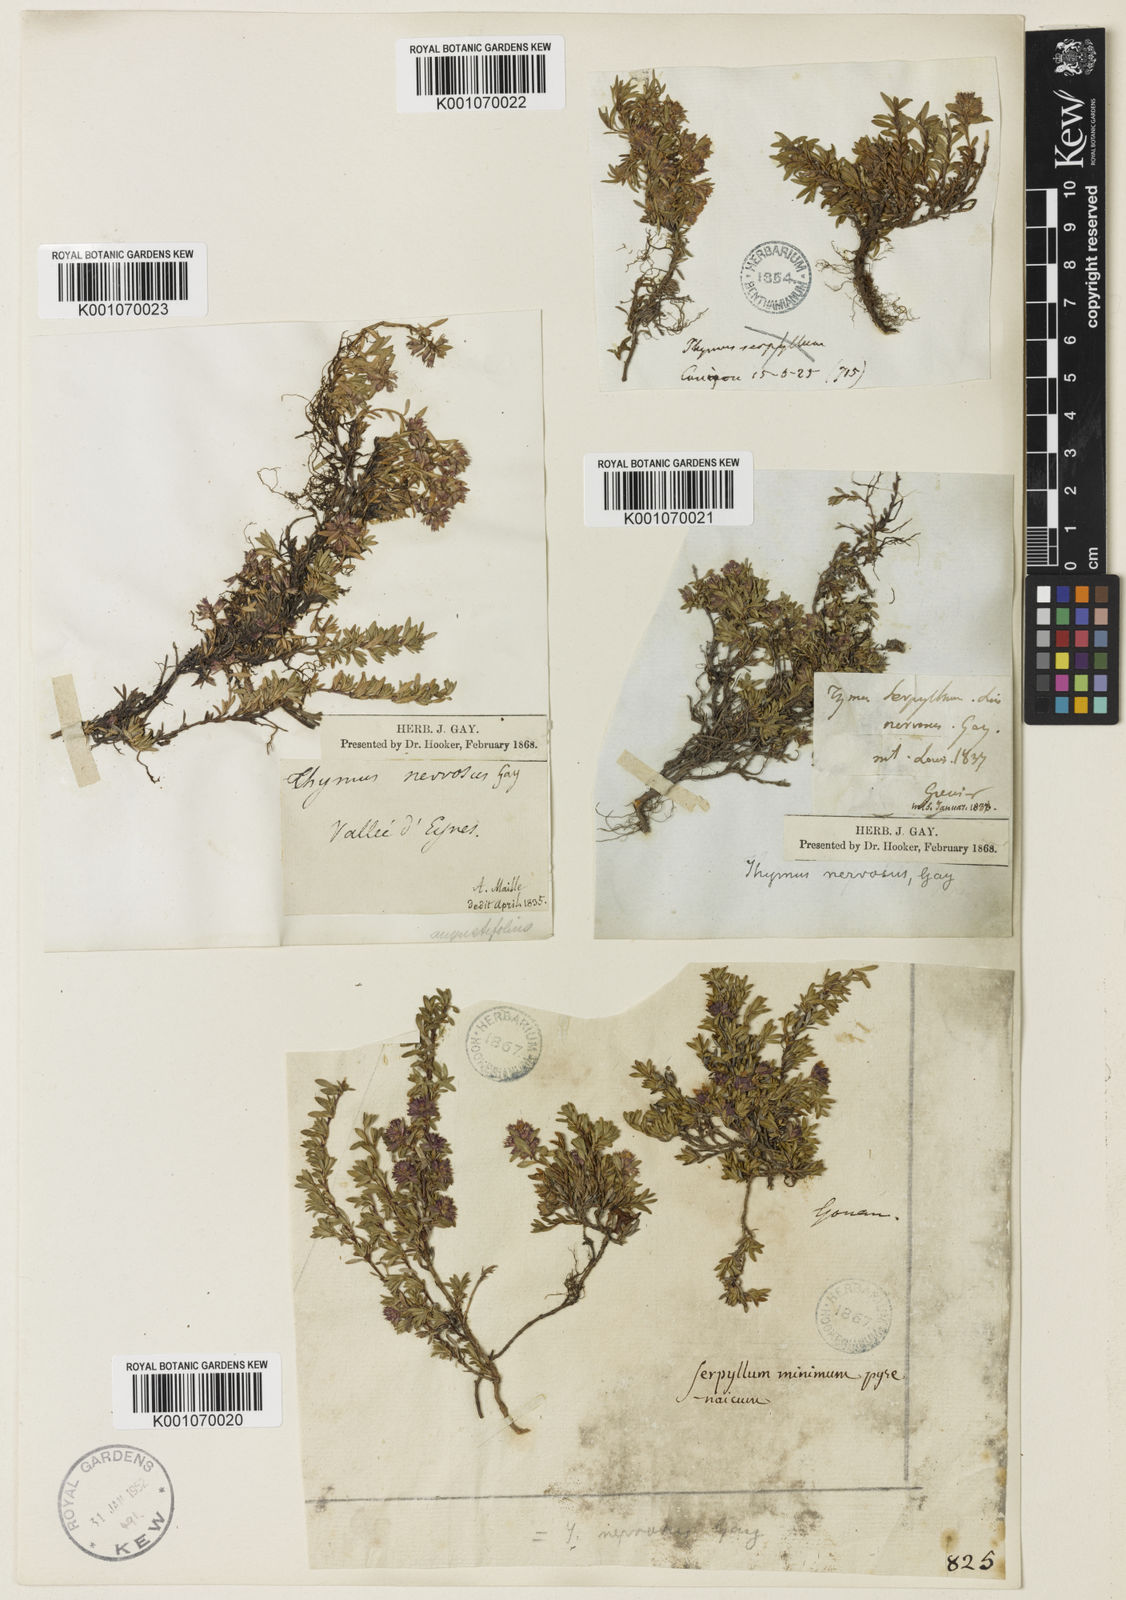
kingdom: Plantae
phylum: Tracheophyta
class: Magnoliopsida
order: Lamiales
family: Lamiaceae
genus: Thymus
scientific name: Thymus nervosus
